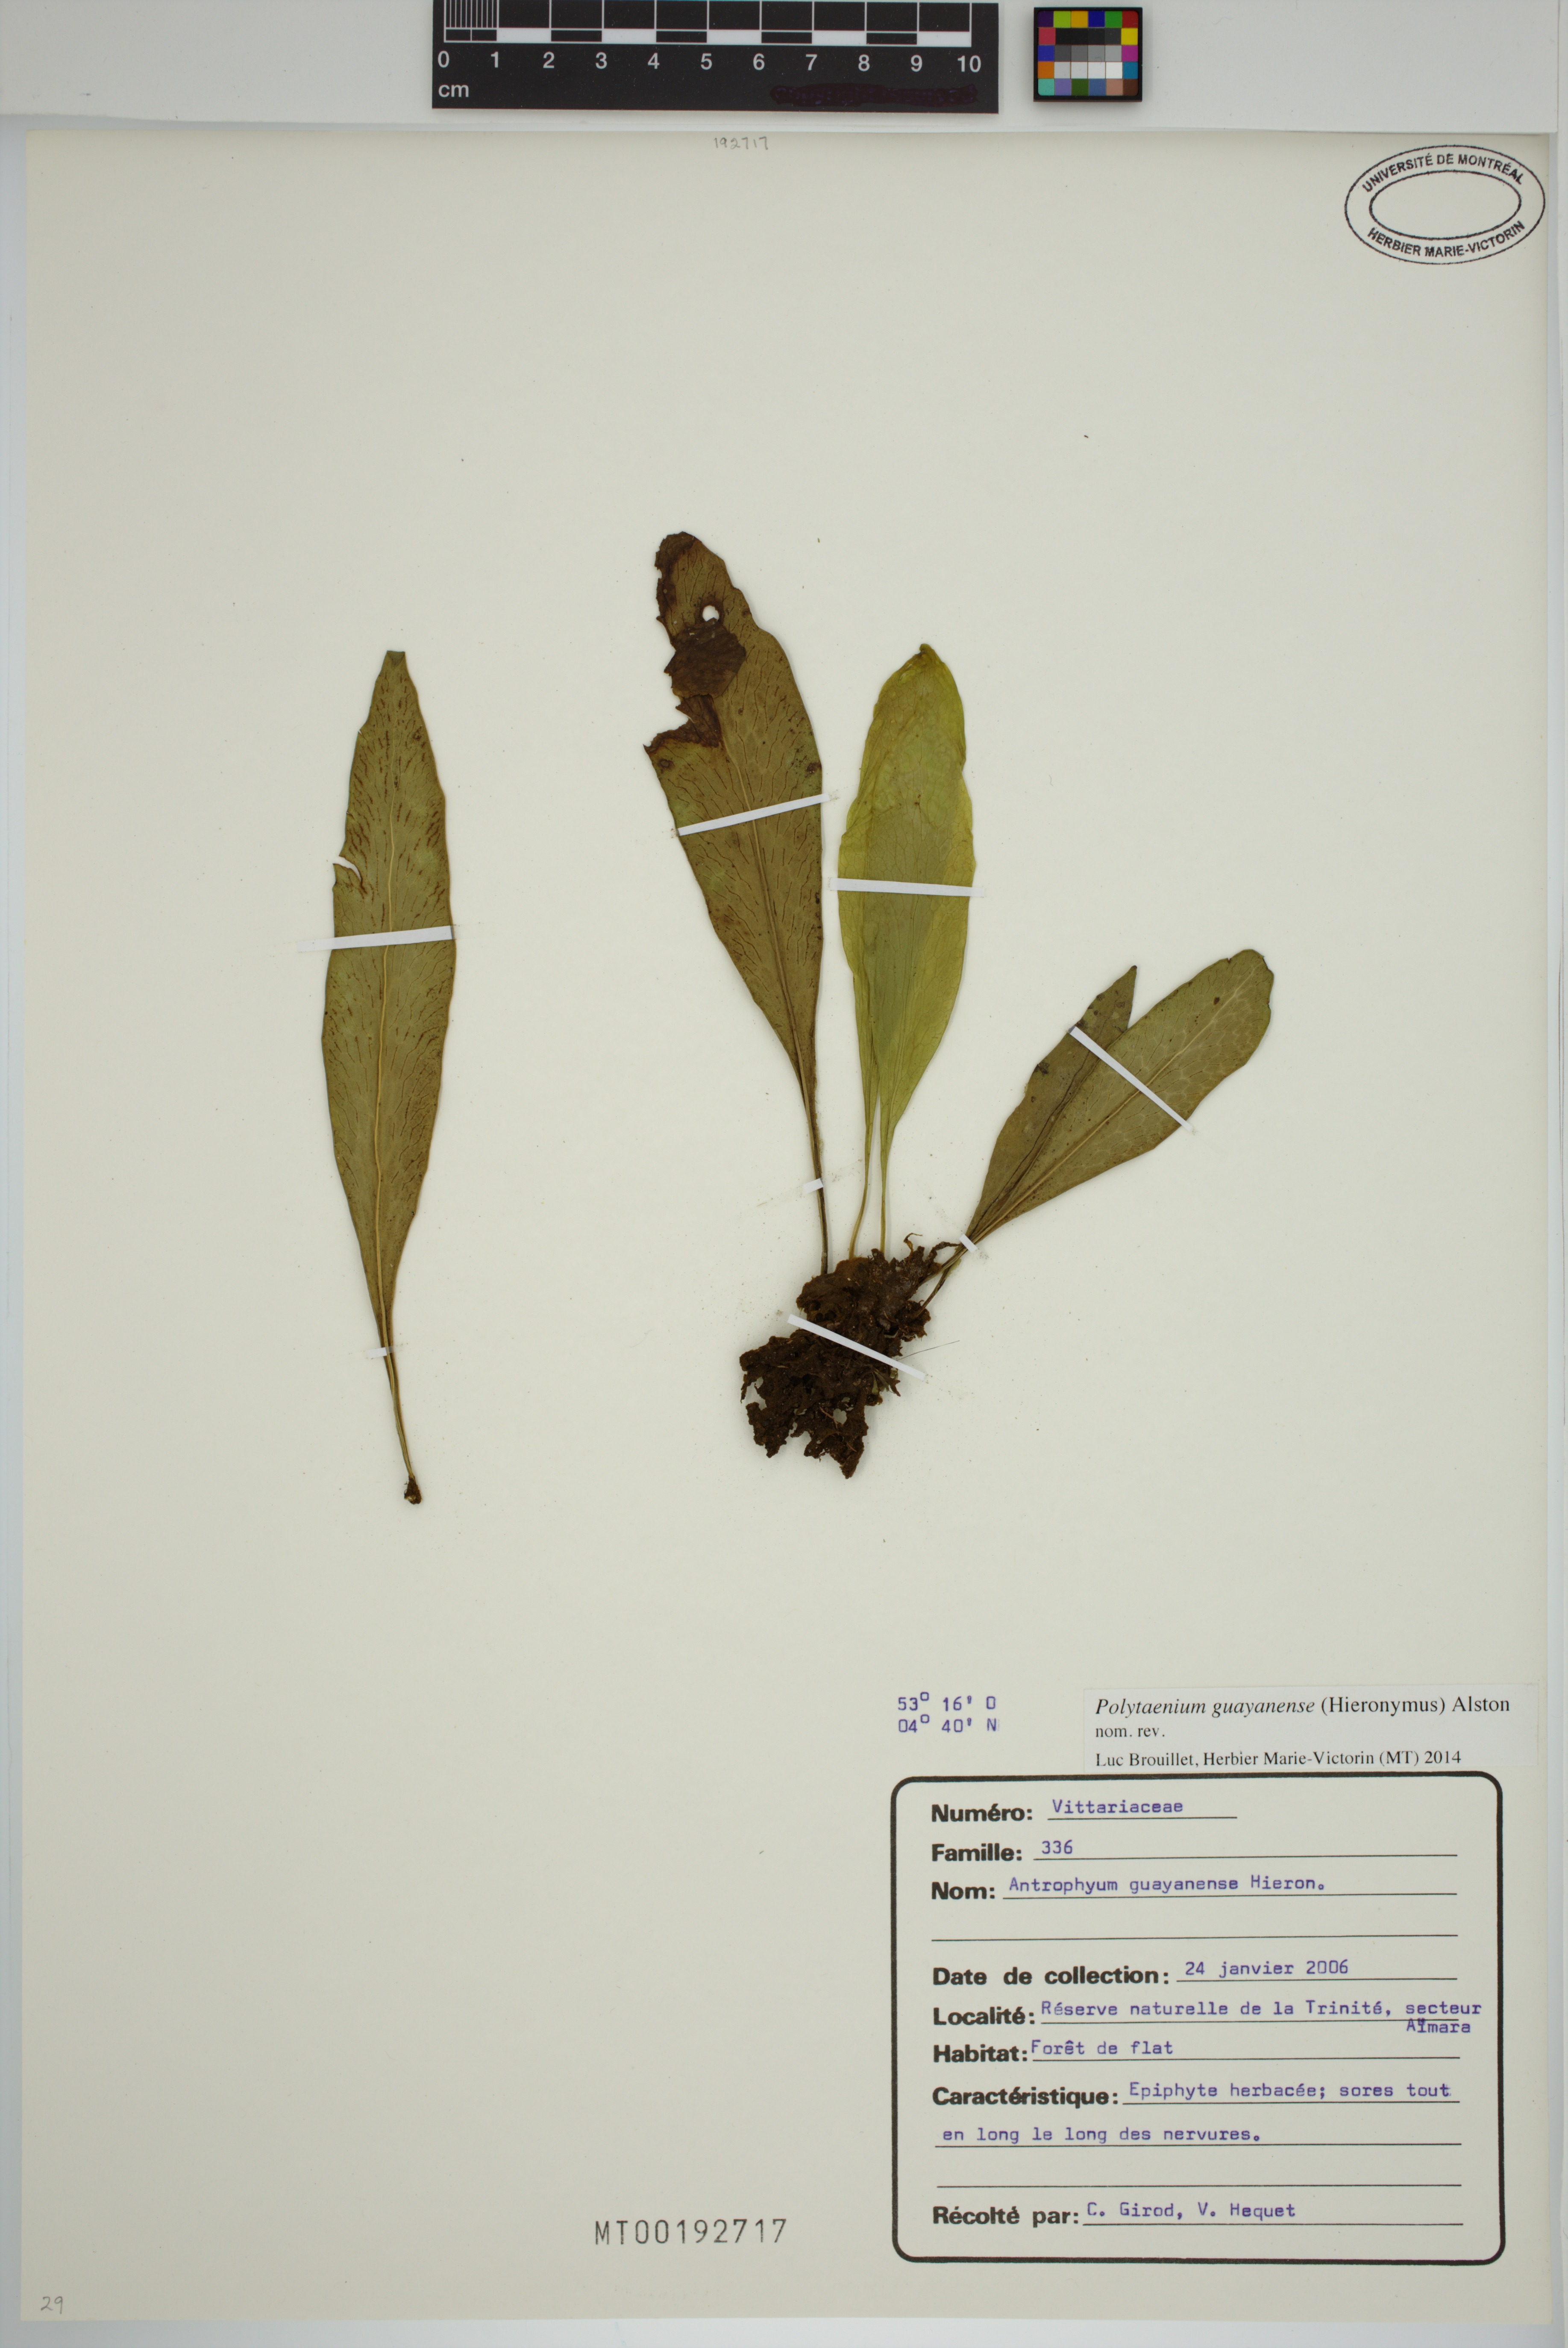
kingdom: Plantae
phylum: Tracheophyta
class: Polypodiopsida
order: Polypodiales
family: Pteridaceae
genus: Polytaenium
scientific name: Polytaenium guayanense
